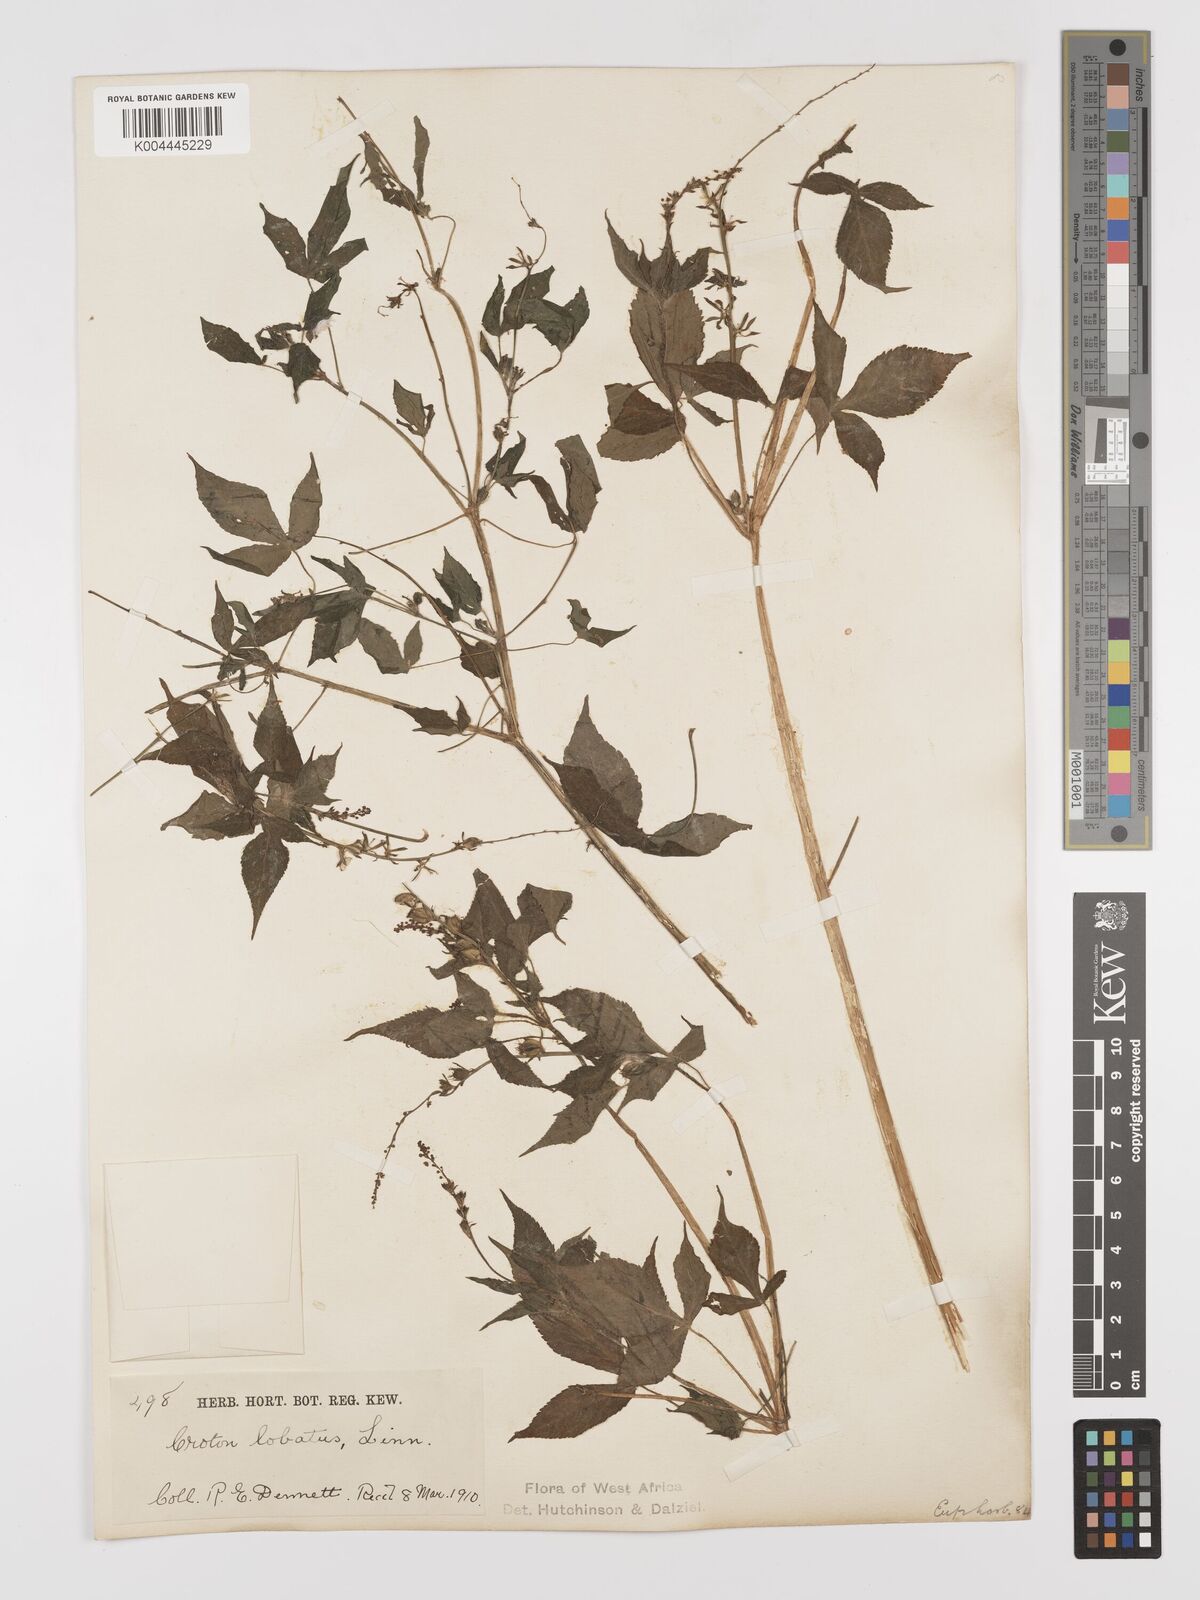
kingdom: Plantae
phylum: Tracheophyta
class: Magnoliopsida
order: Malpighiales
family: Euphorbiaceae
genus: Astraea
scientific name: Astraea lobata
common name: Lobed croton
